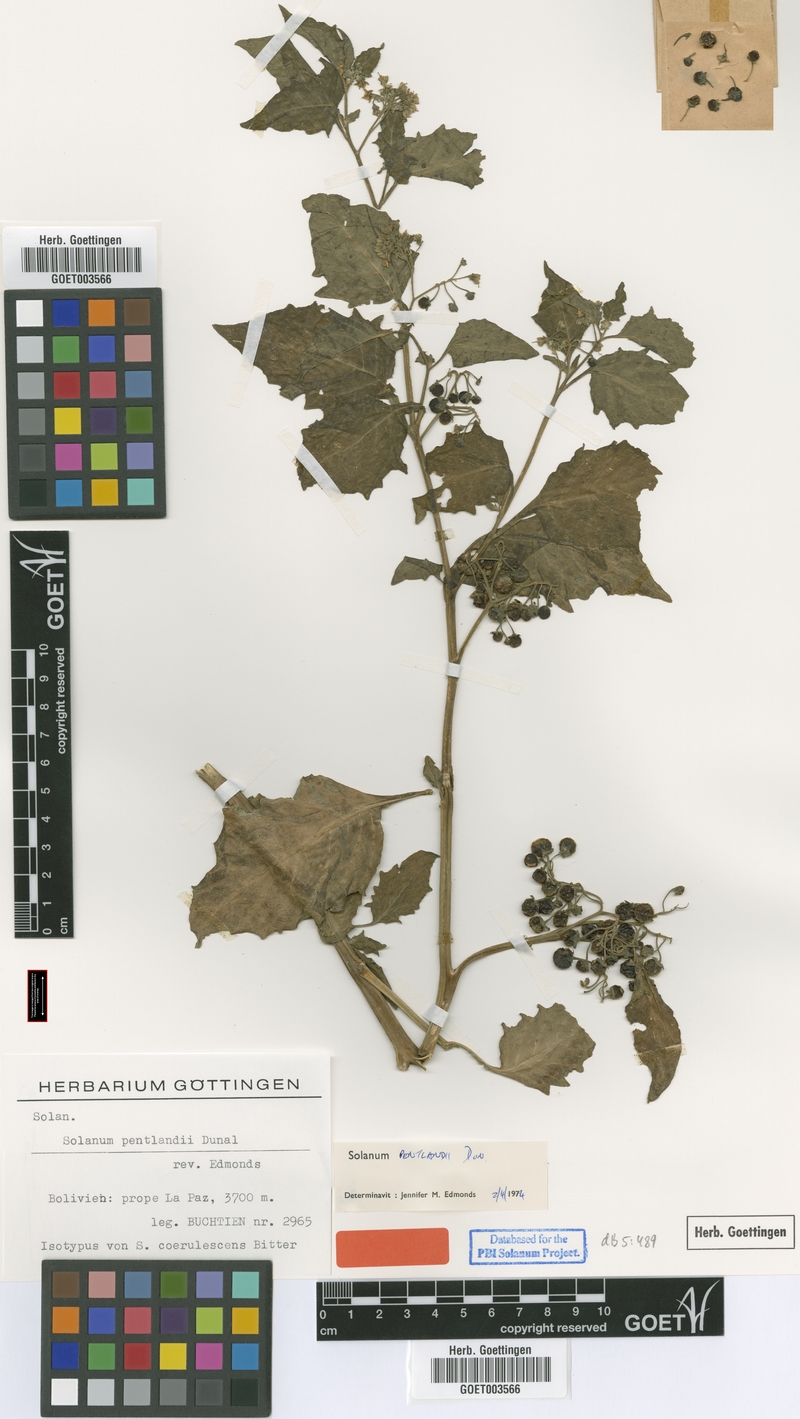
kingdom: Plantae
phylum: Tracheophyta
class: Magnoliopsida
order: Solanales
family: Solanaceae
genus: Solanum
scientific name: Solanum pentlandii
